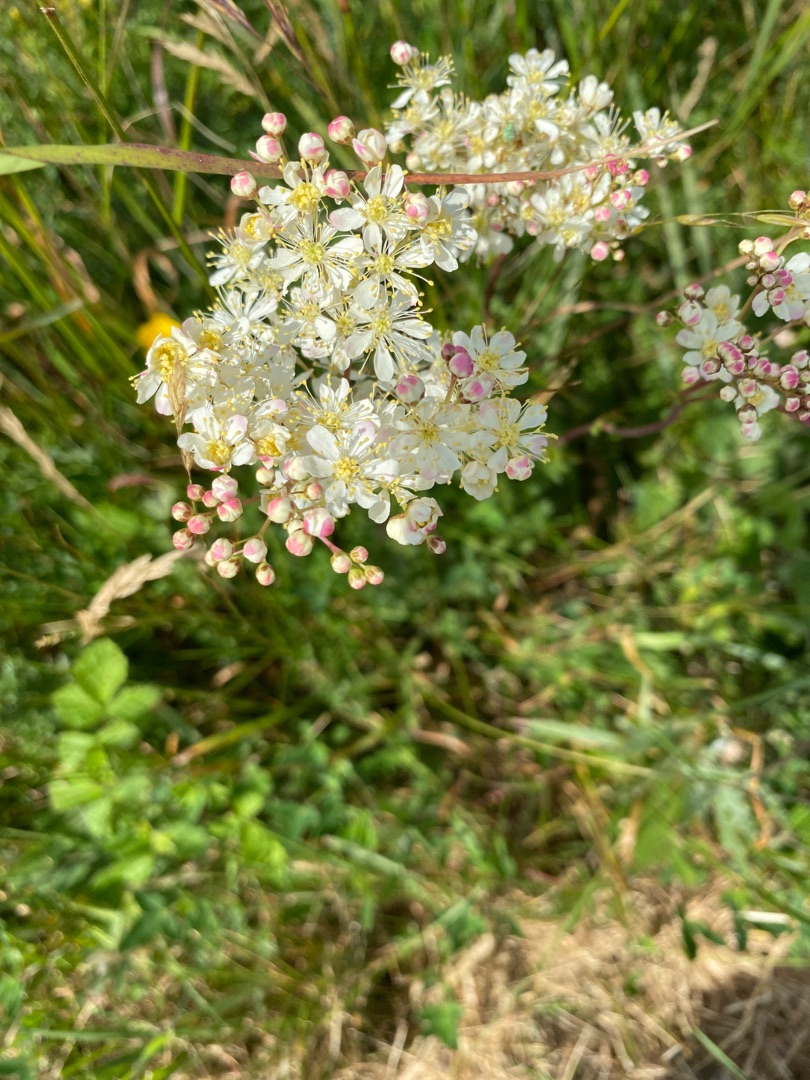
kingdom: Plantae
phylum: Tracheophyta
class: Magnoliopsida
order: Rosales
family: Rosaceae
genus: Filipendula
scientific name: Filipendula vulgaris
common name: Knoldet mjødurt
